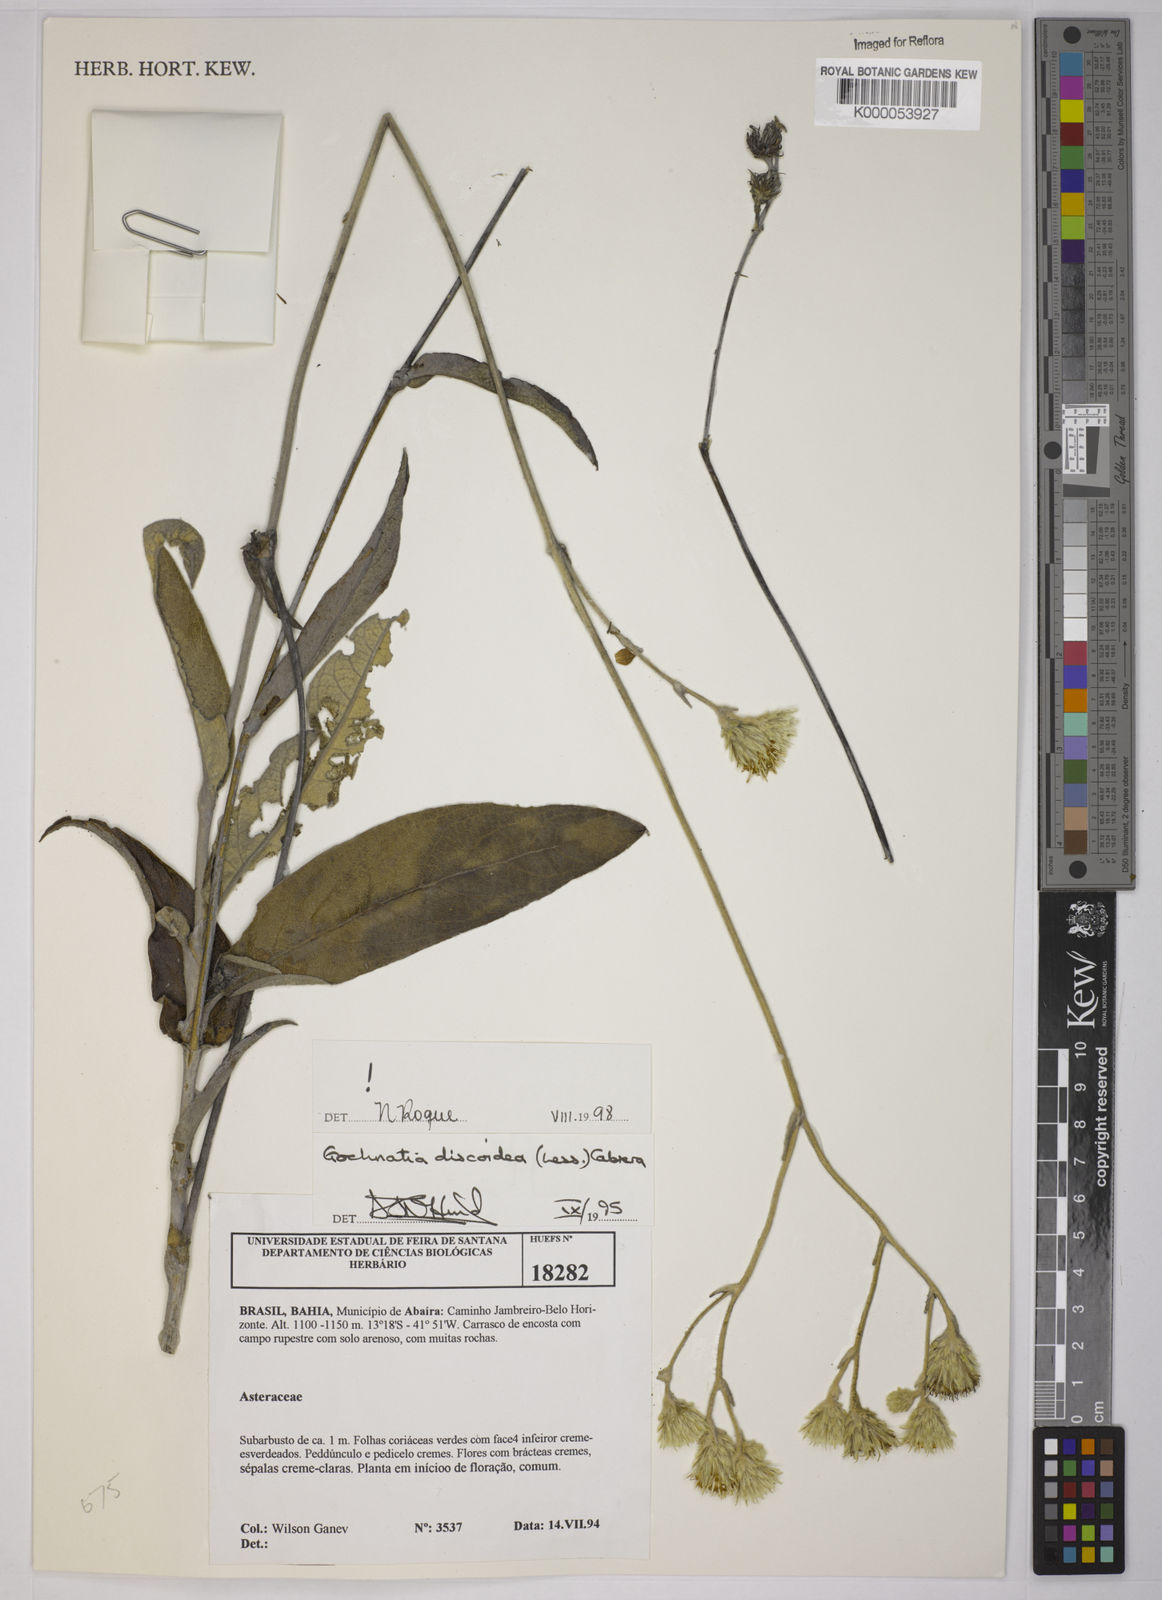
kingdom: Plantae
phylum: Tracheophyta
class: Magnoliopsida
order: Asterales
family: Asteraceae
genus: Richterago
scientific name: Richterago discoidea
